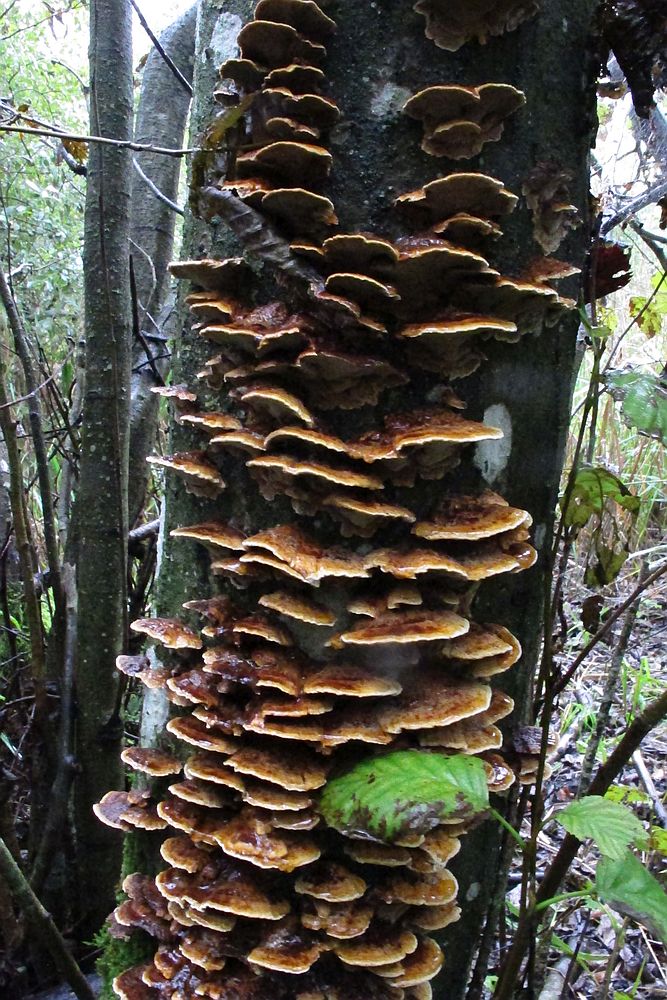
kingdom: Fungi
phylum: Basidiomycota
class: Agaricomycetes
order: Hymenochaetales
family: Hymenochaetaceae
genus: Xanthoporia
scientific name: Xanthoporia radiata
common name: elle-spejlporesvamp
